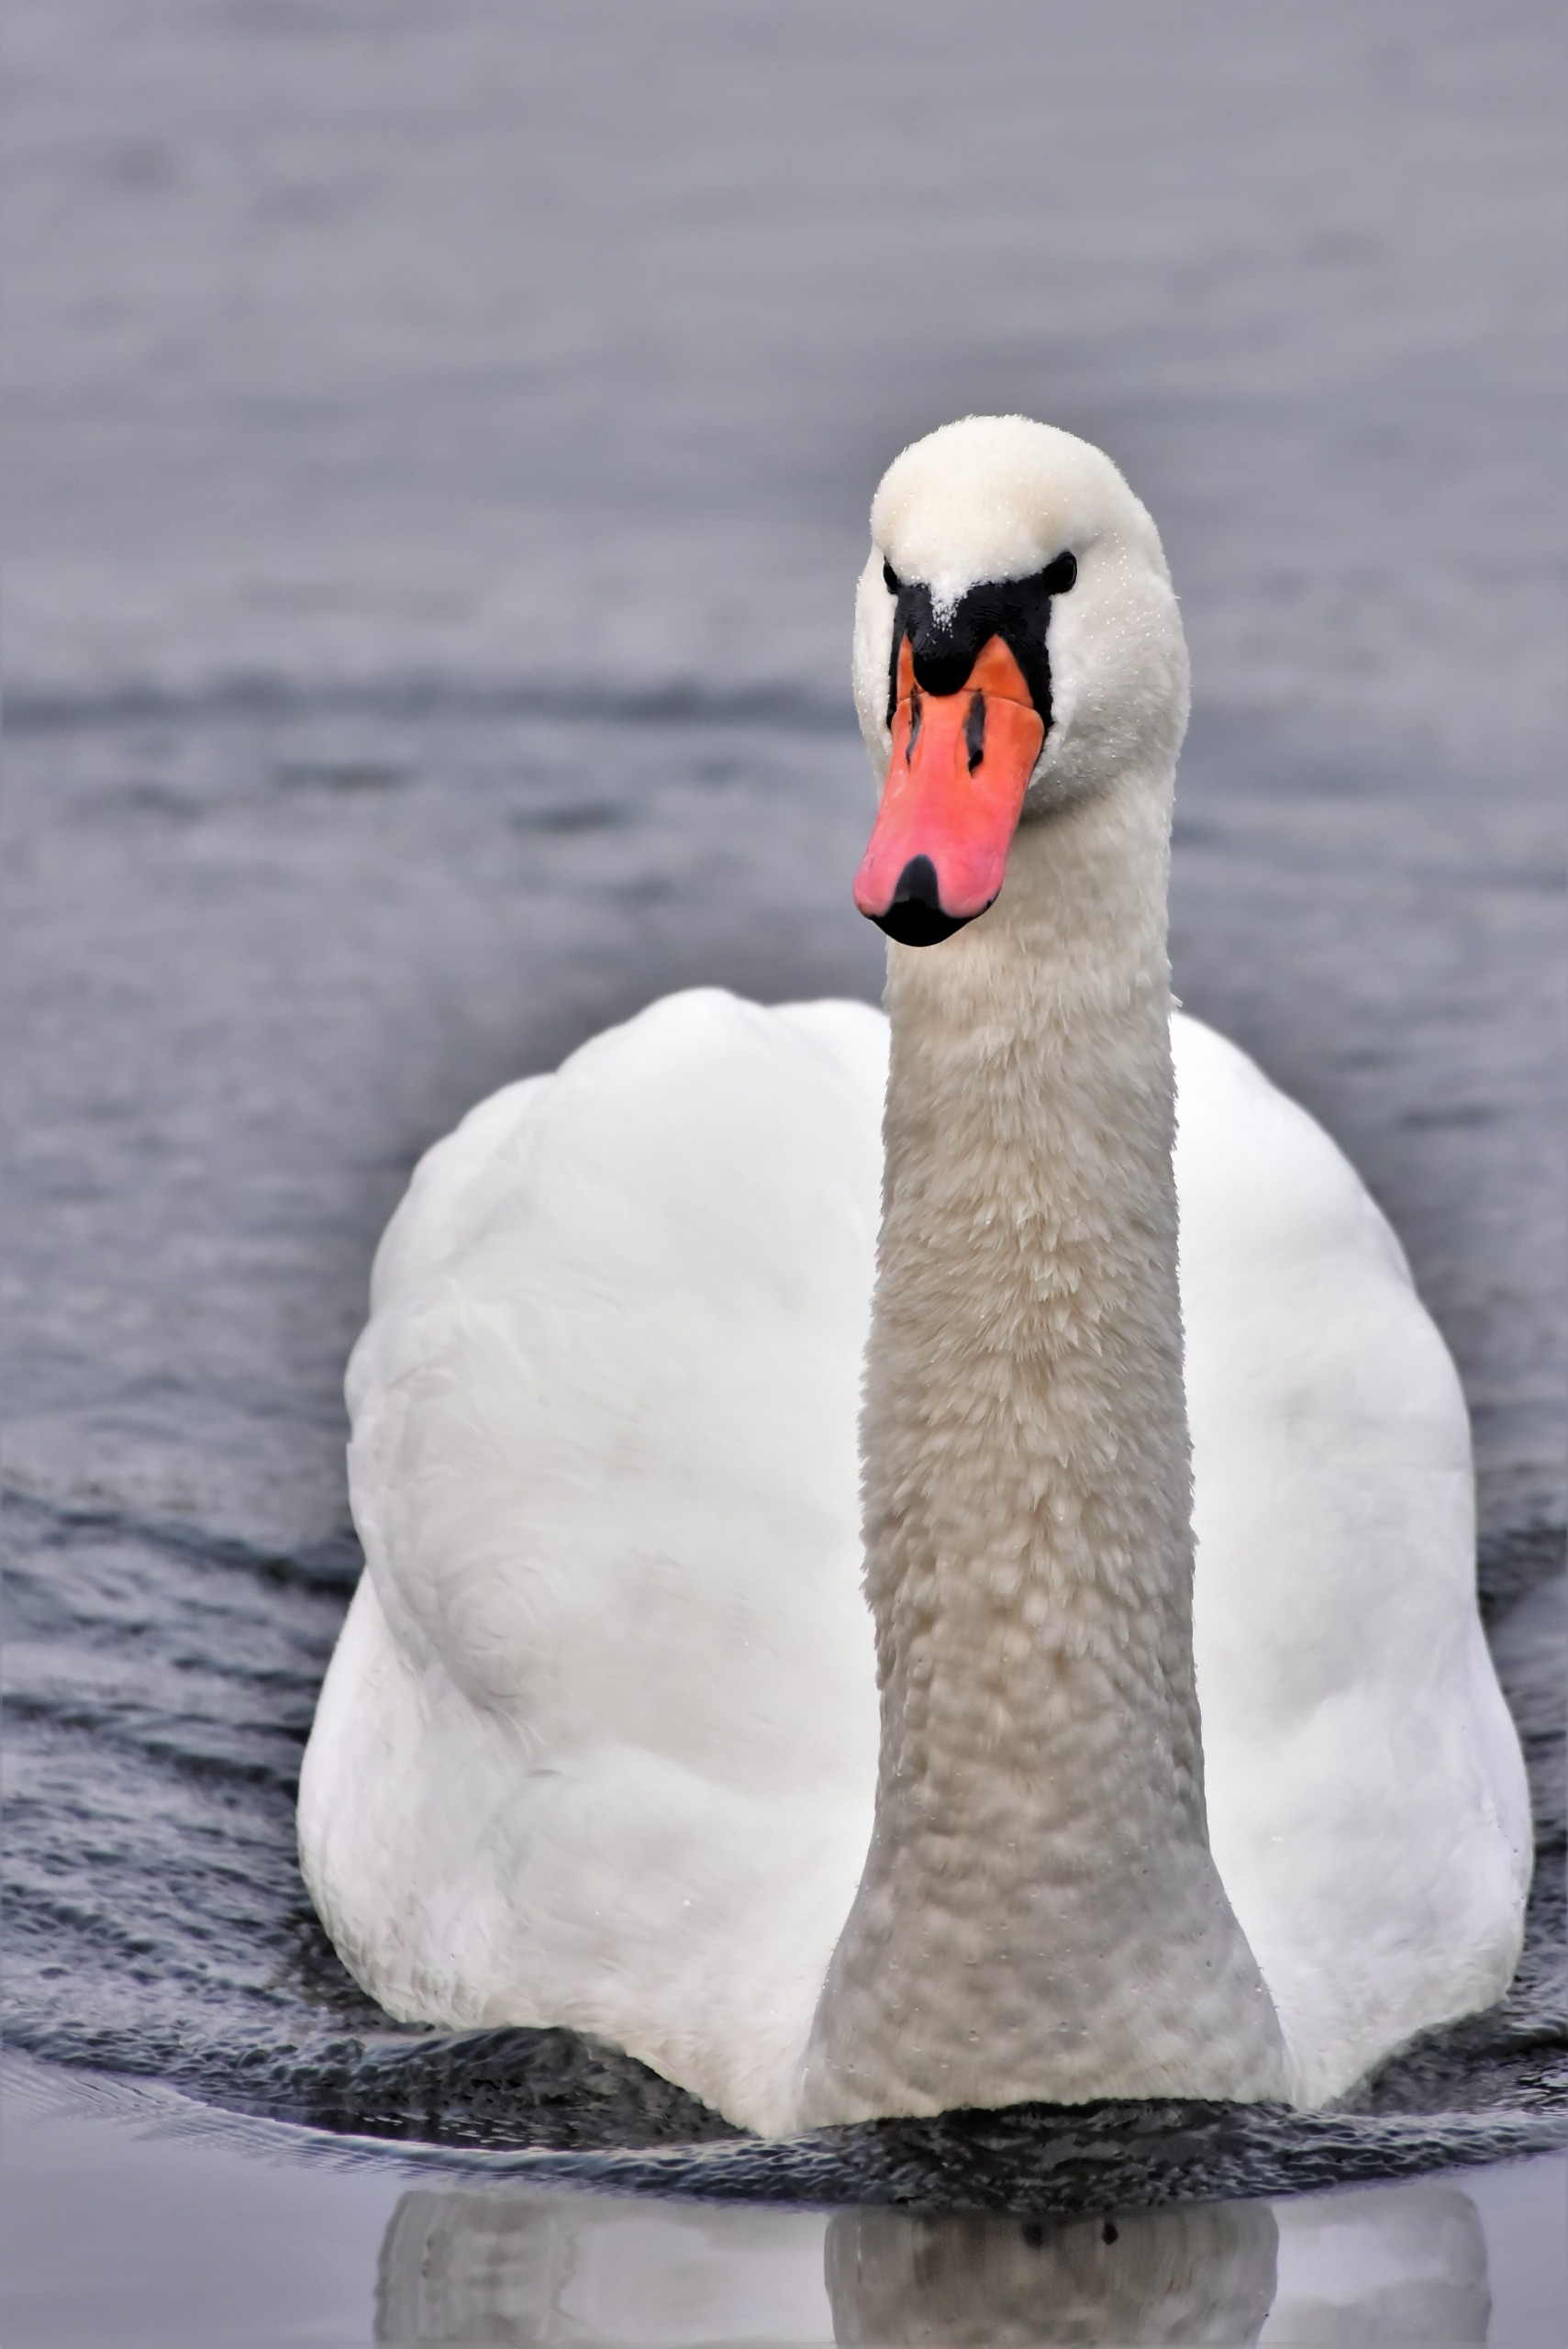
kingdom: Animalia
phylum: Chordata
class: Aves
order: Anseriformes
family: Anatidae
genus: Cygnus
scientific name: Cygnus olor
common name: Knopsvane
